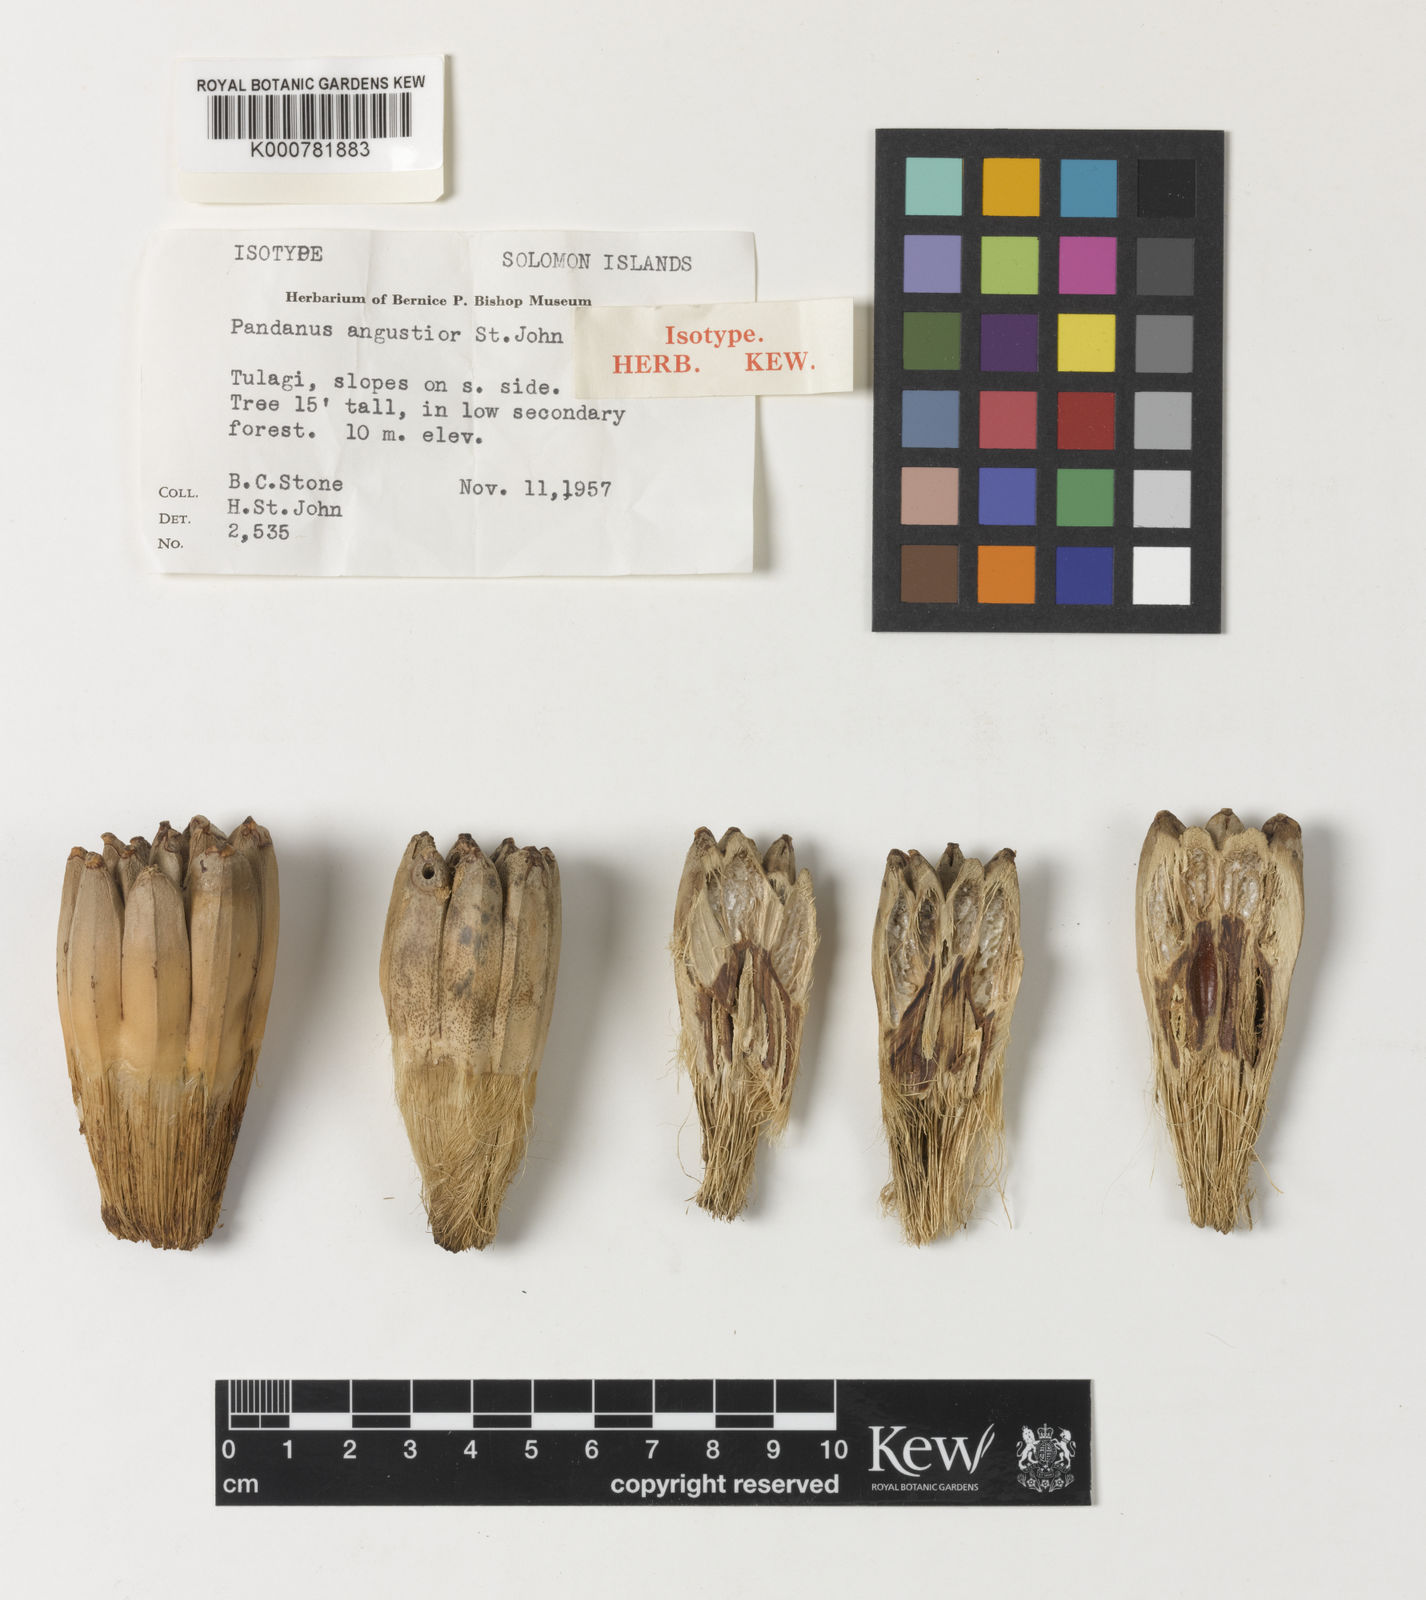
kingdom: Plantae
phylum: Tracheophyta
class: Liliopsida
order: Pandanales
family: Pandanaceae
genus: Pandanus
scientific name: Pandanus
